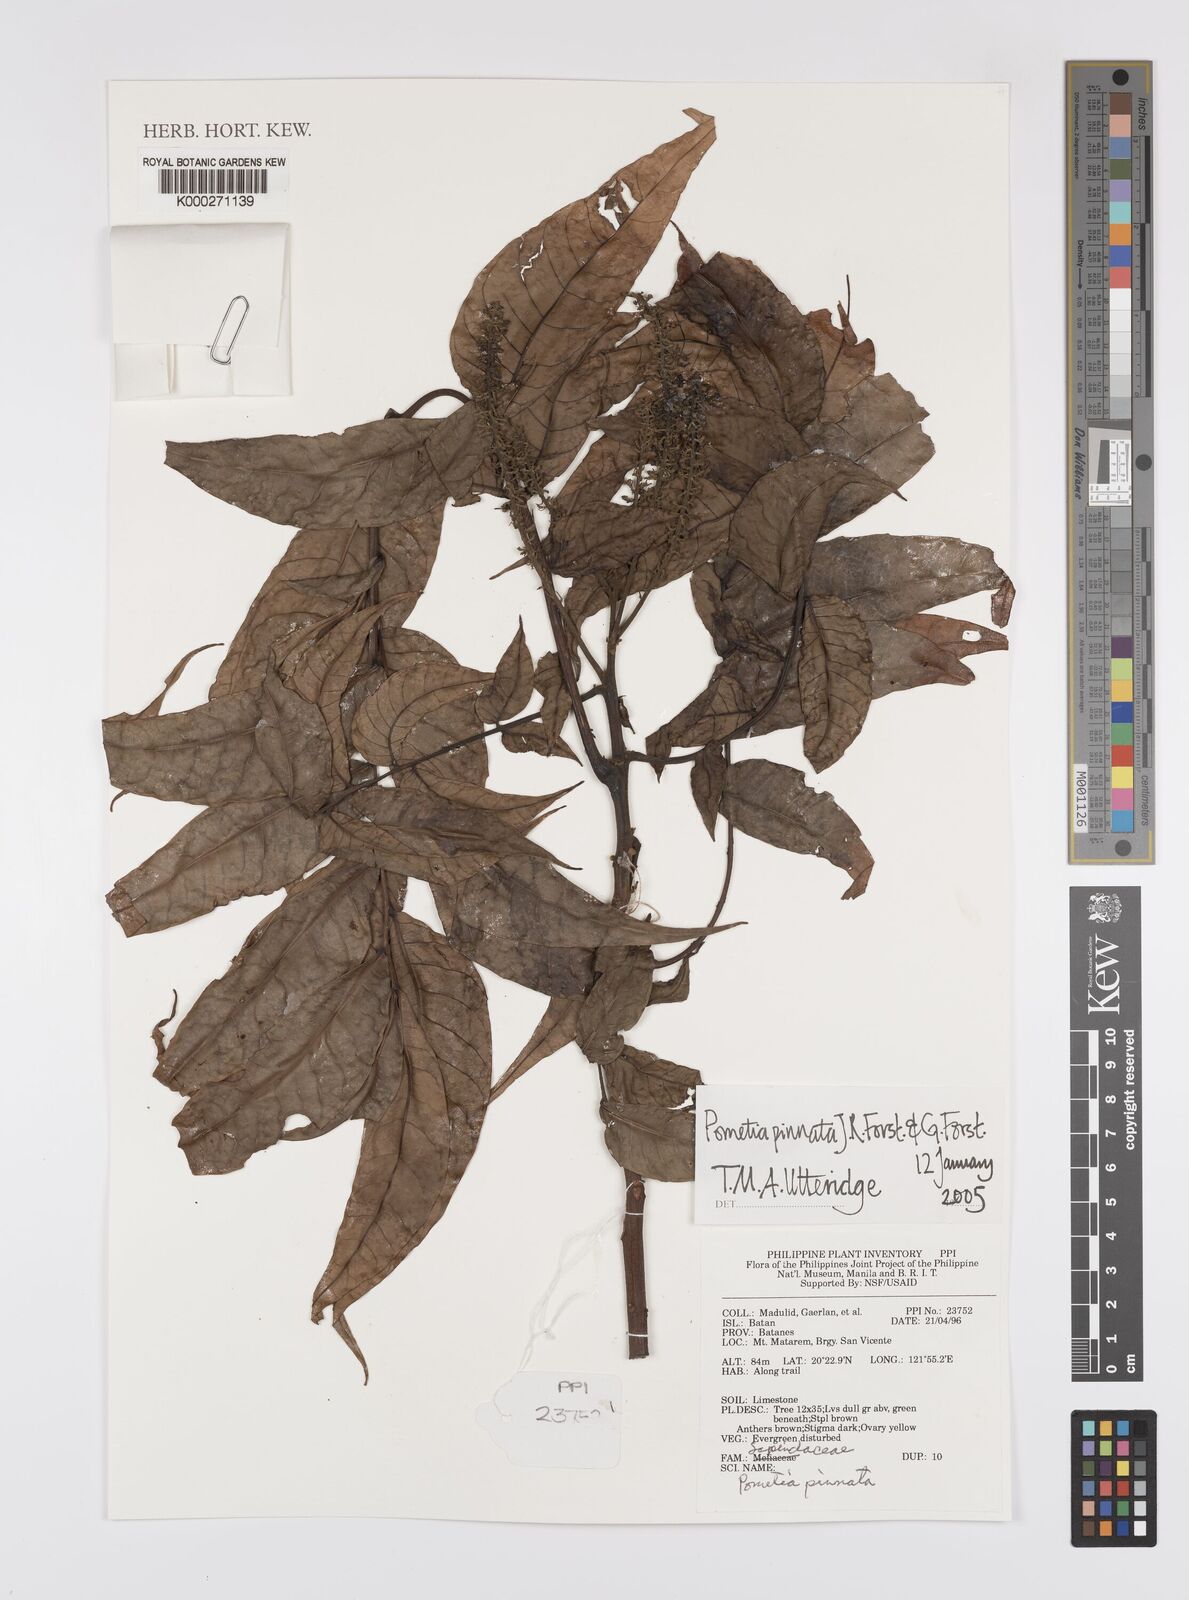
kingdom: Plantae
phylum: Tracheophyta
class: Magnoliopsida
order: Sapindales
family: Sapindaceae
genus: Pometia
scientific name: Pometia pinnata
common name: Oceanic lychee
